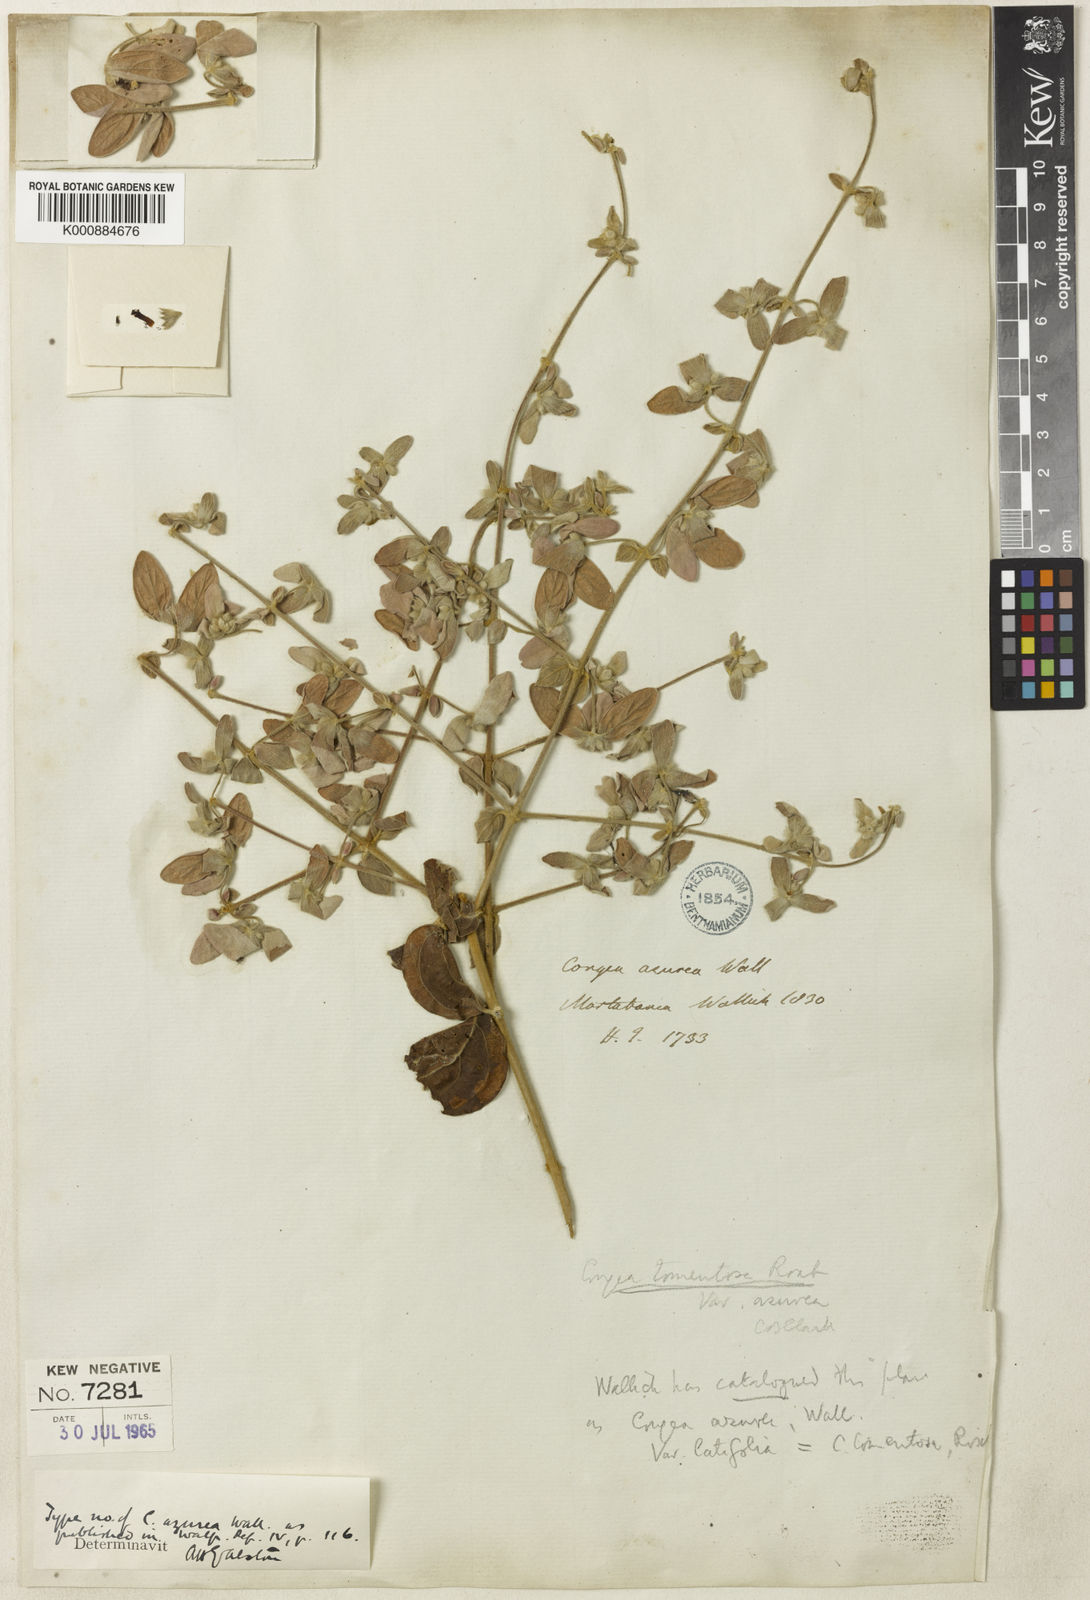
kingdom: Plantae
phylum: Tracheophyta
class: Magnoliopsida
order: Lamiales
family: Lamiaceae
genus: Congea
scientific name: Congea tomentosa
